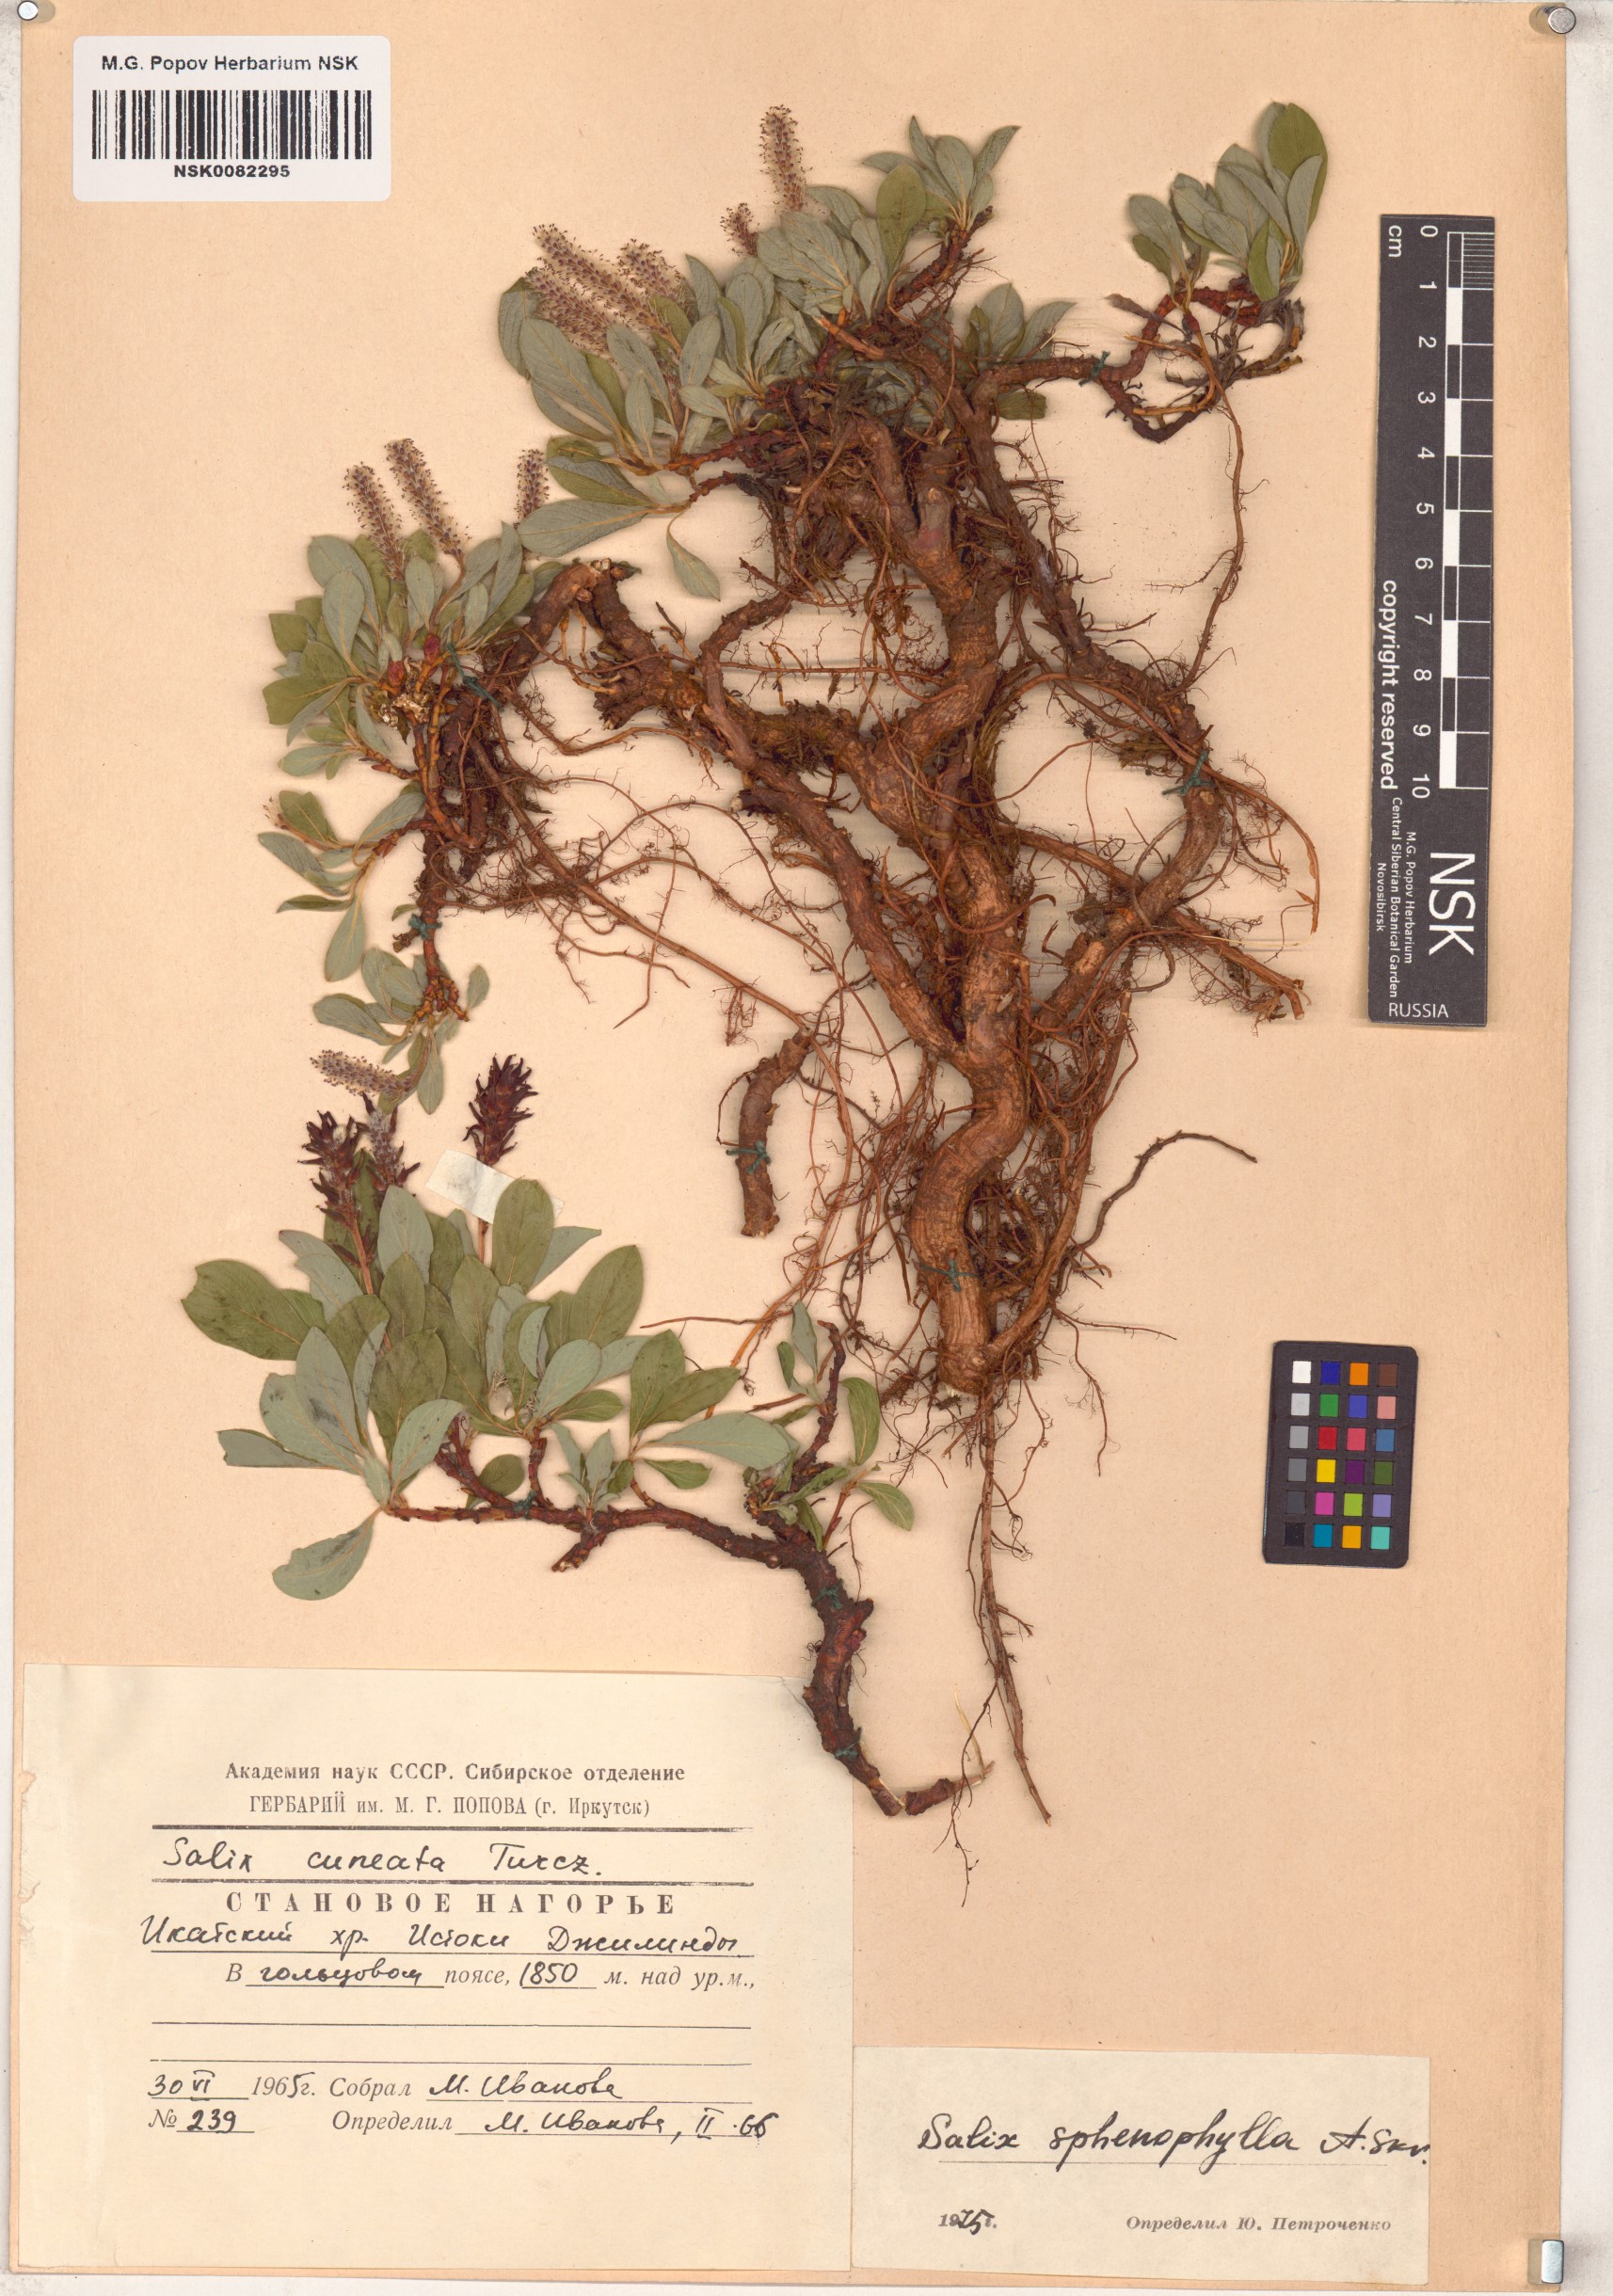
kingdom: Plantae
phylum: Tracheophyta
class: Magnoliopsida
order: Malpighiales
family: Salicaceae
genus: Salix
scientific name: Salix sphenophylla
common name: Wedge-leaved willow
